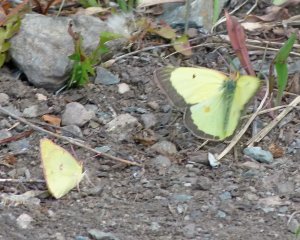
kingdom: Animalia
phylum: Arthropoda
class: Insecta
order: Lepidoptera
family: Pieridae
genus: Colias
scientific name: Colias philodice
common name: Clouded Sulphur
